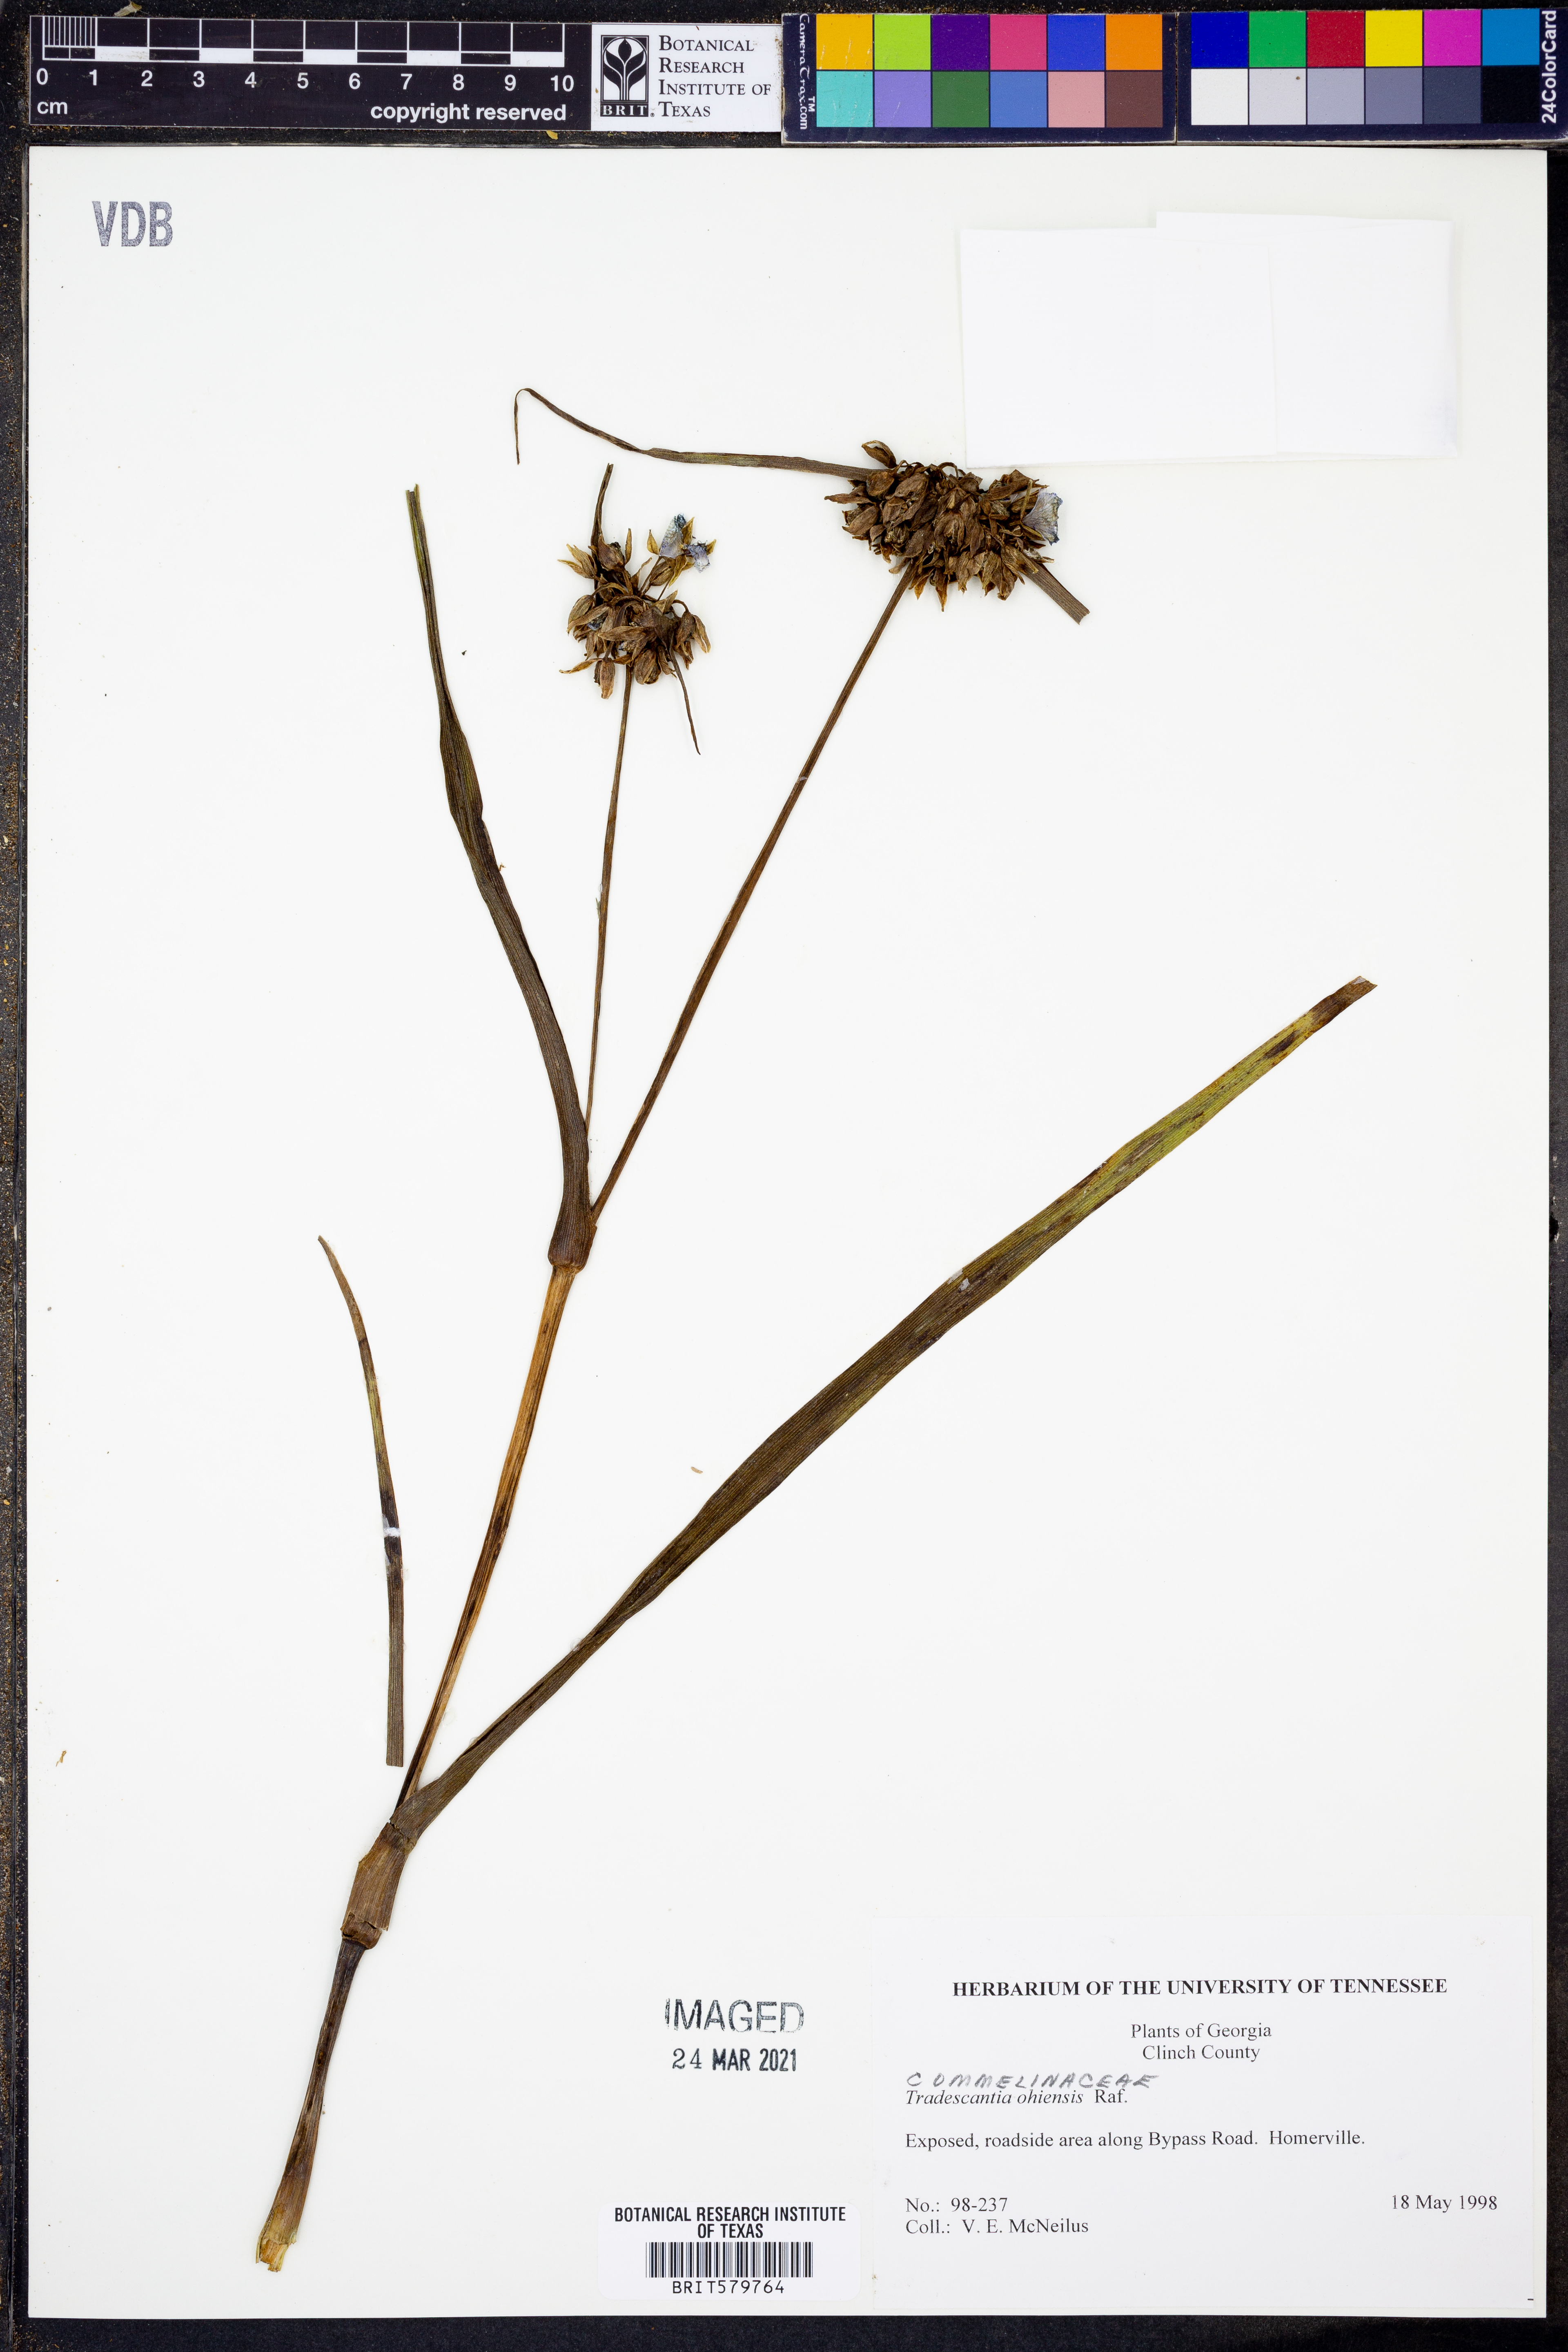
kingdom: Plantae
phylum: Tracheophyta
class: Liliopsida
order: Commelinales
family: Commelinaceae
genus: Tradescantia
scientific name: Tradescantia ohiensis
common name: Ohio spiderwort
